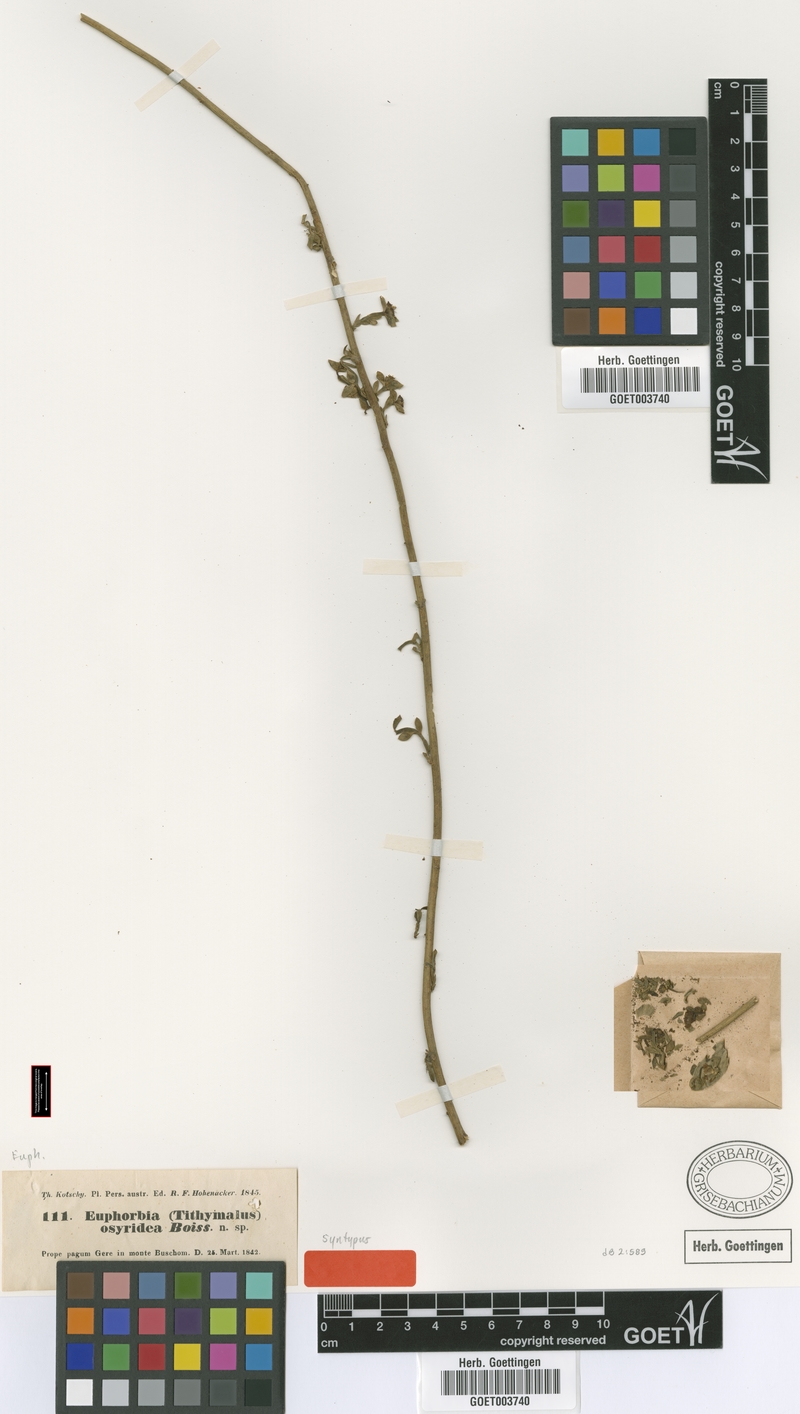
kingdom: Plantae
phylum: Tracheophyta
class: Magnoliopsida
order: Malpighiales
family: Euphorbiaceae
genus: Euphorbia
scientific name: Euphorbia osyridea
